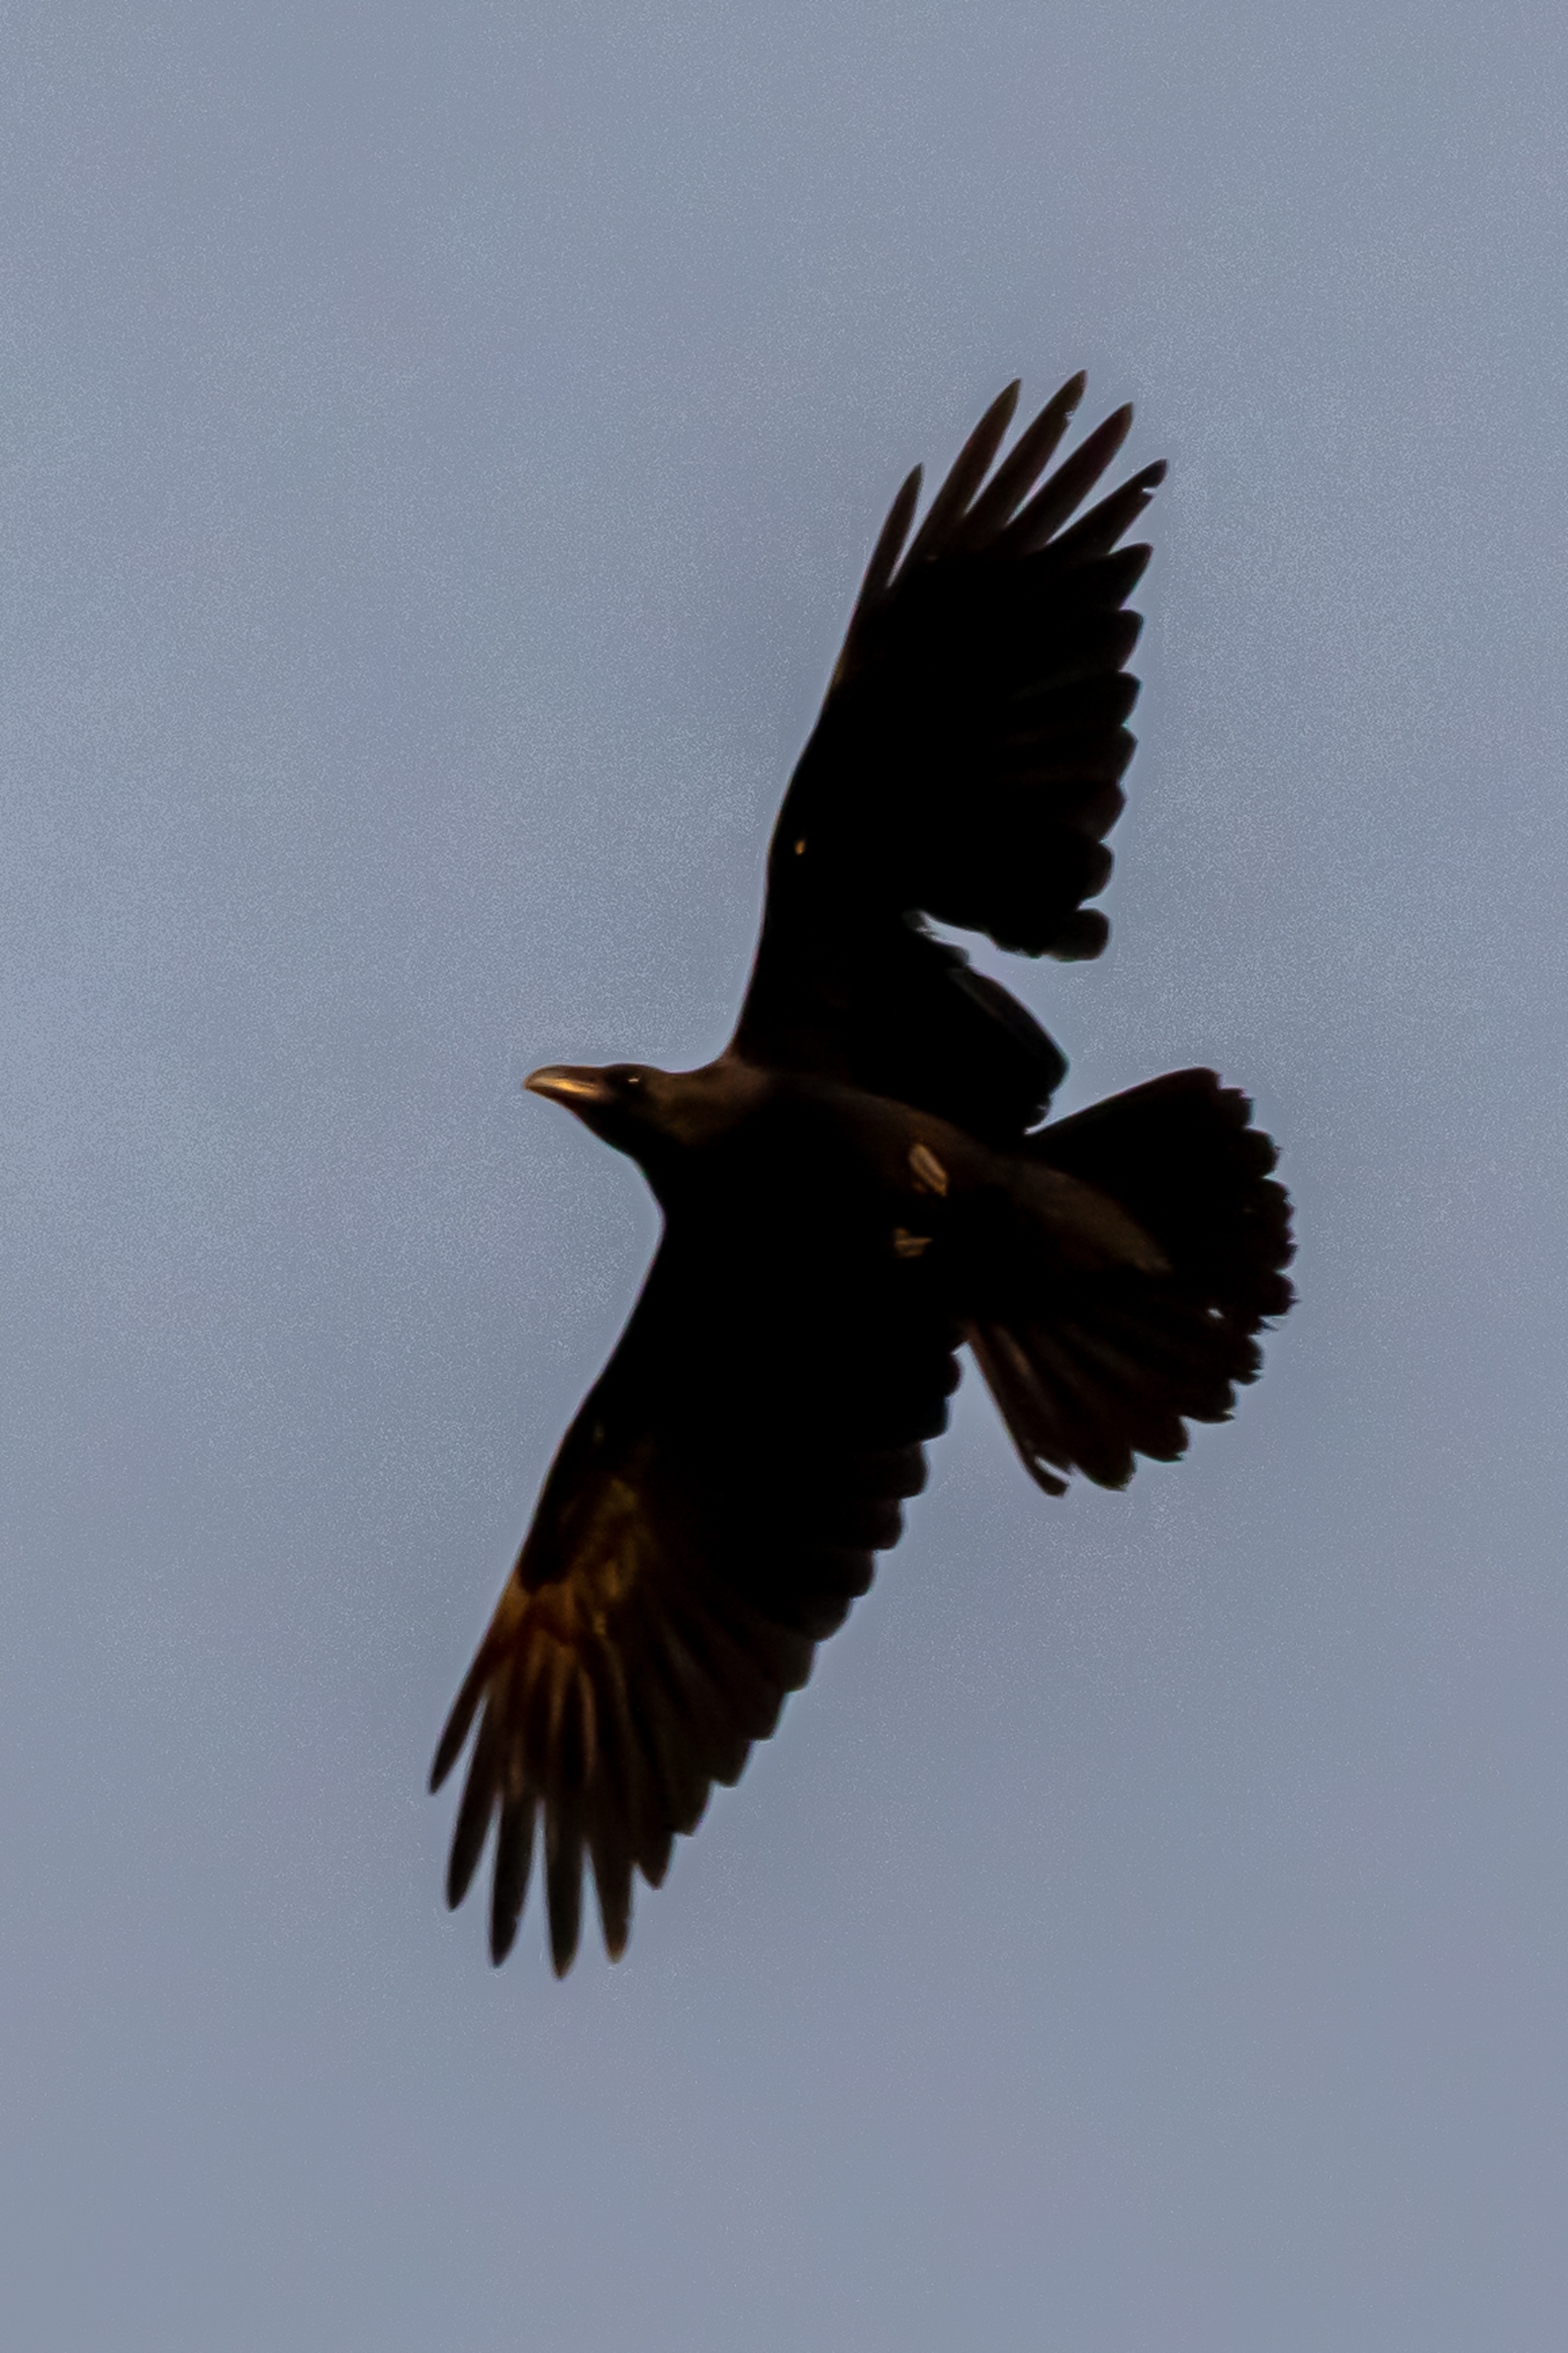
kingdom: Animalia
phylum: Chordata
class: Aves
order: Passeriformes
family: Corvidae
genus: Corvus
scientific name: Corvus corax
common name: Ravn
